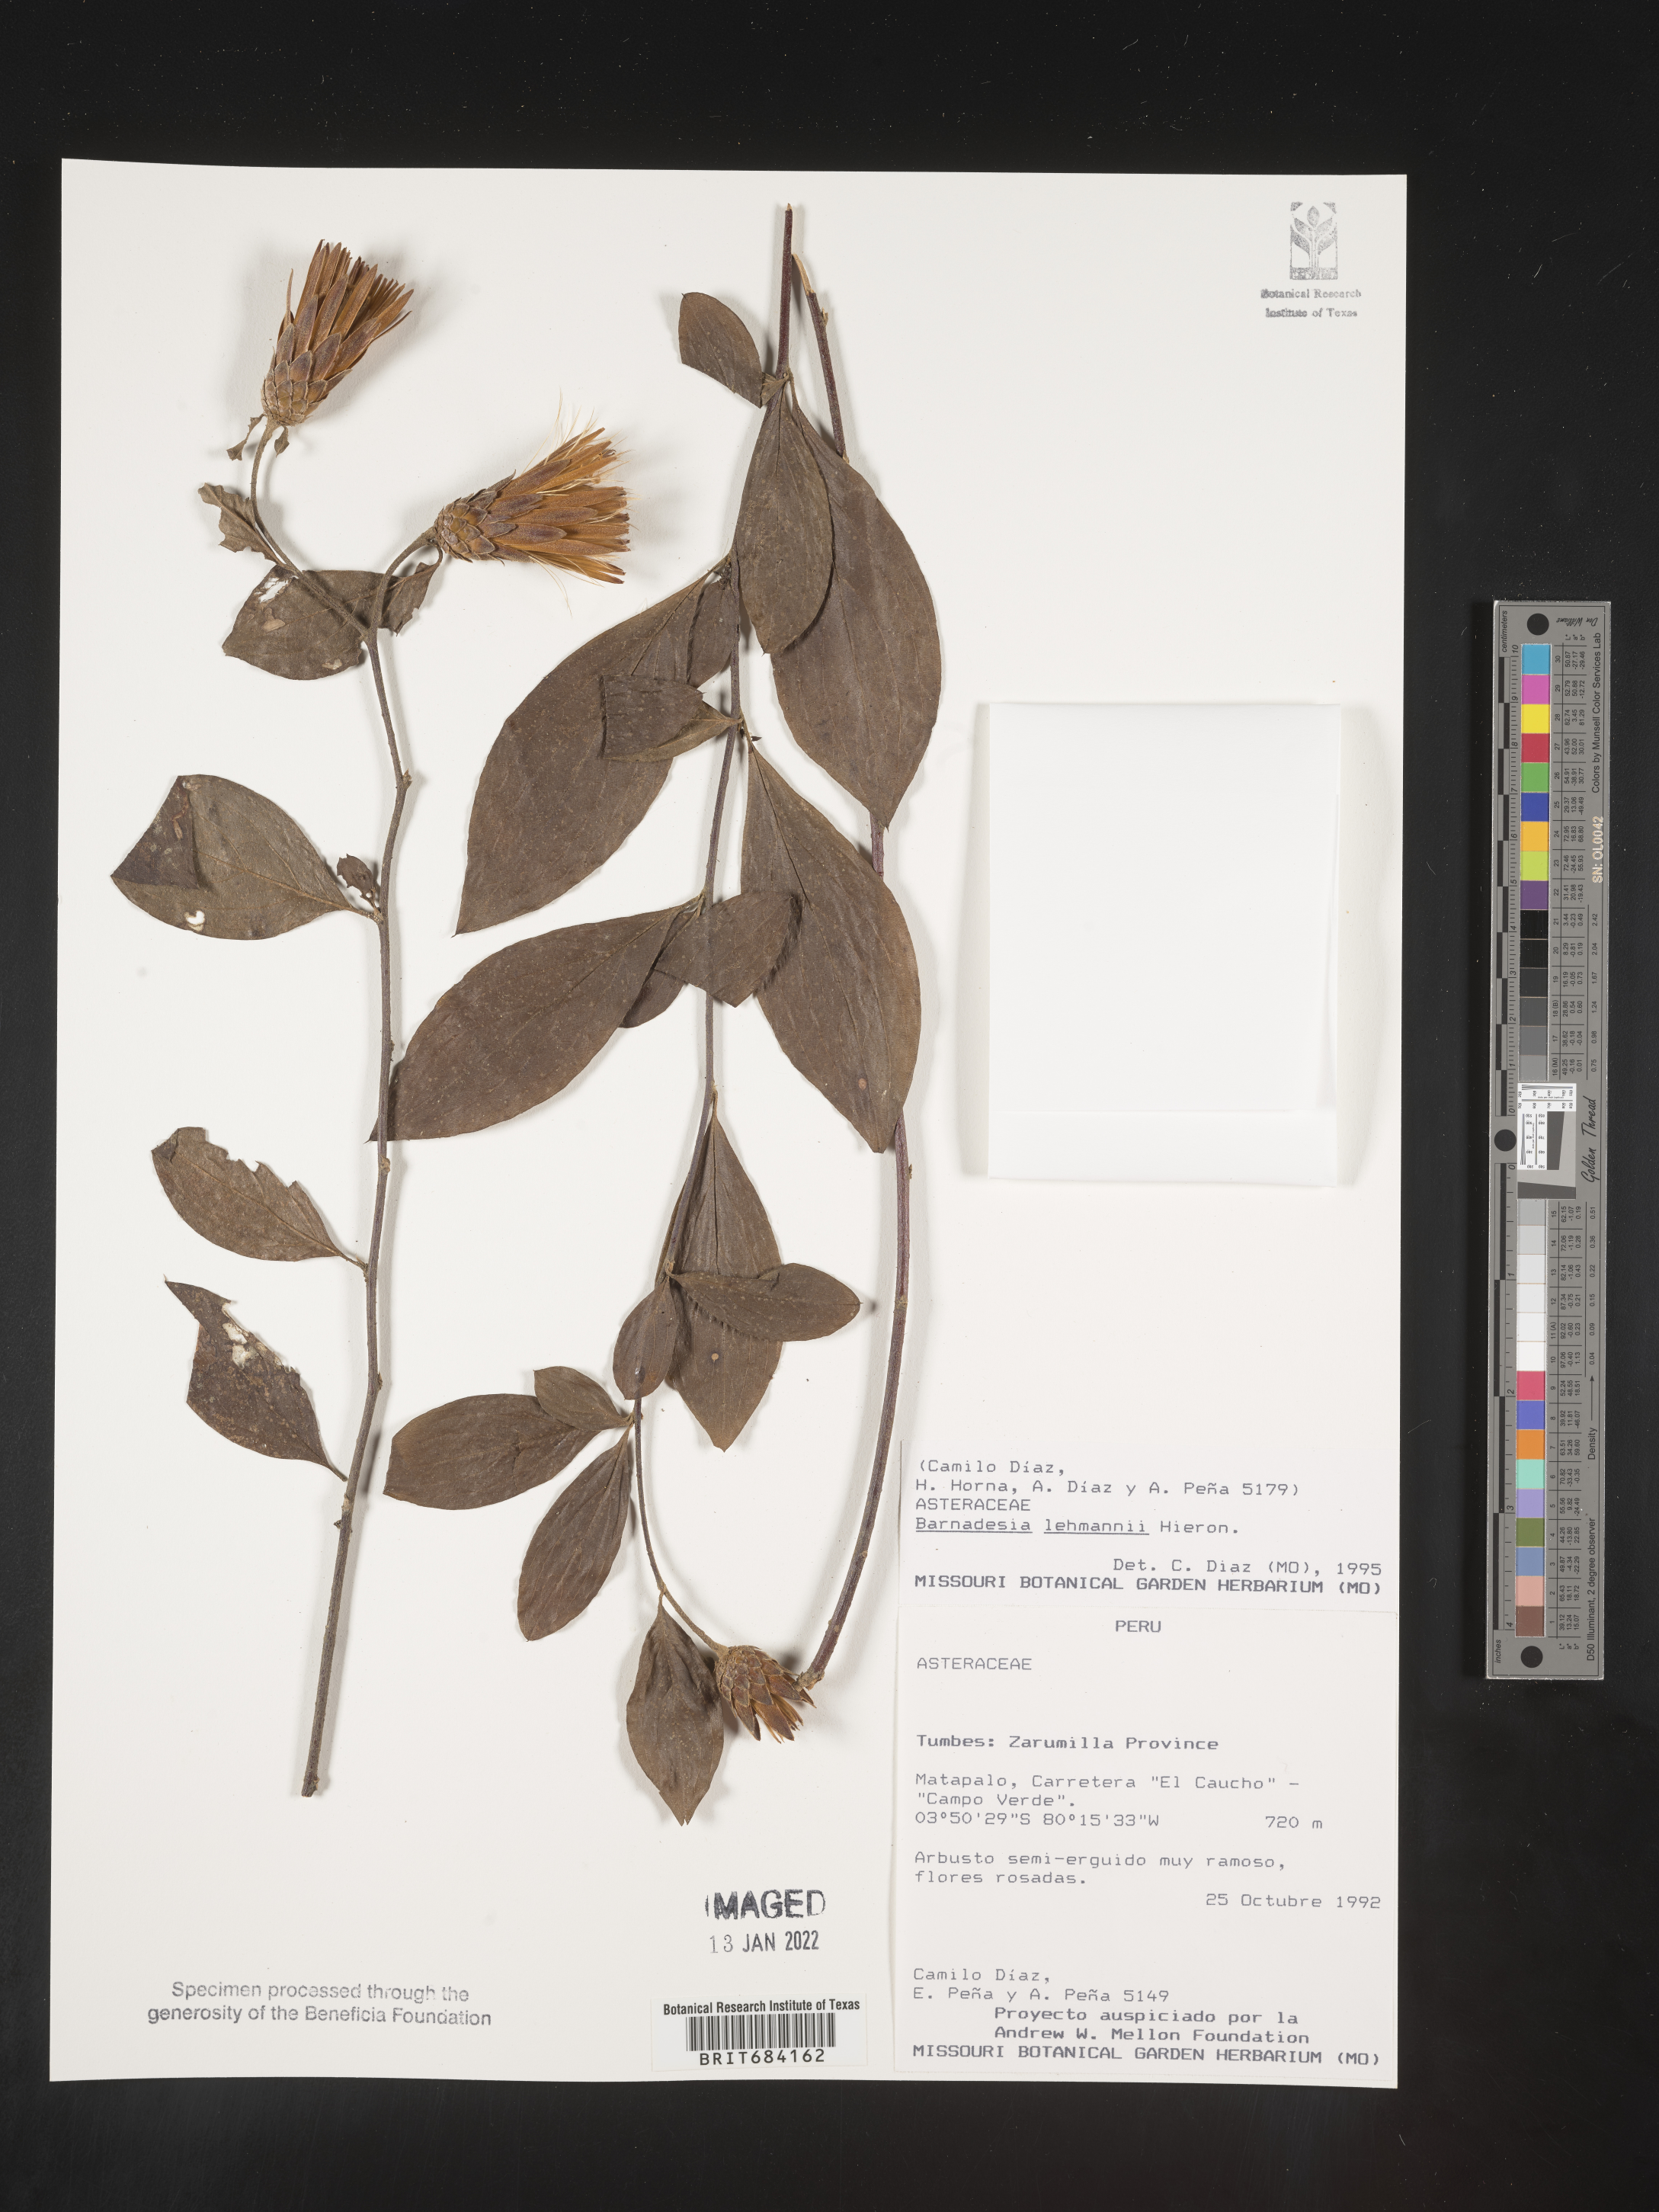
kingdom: Plantae
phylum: Tracheophyta
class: Magnoliopsida
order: Asterales
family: Asteraceae
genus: Barnadesia
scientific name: Barnadesia
